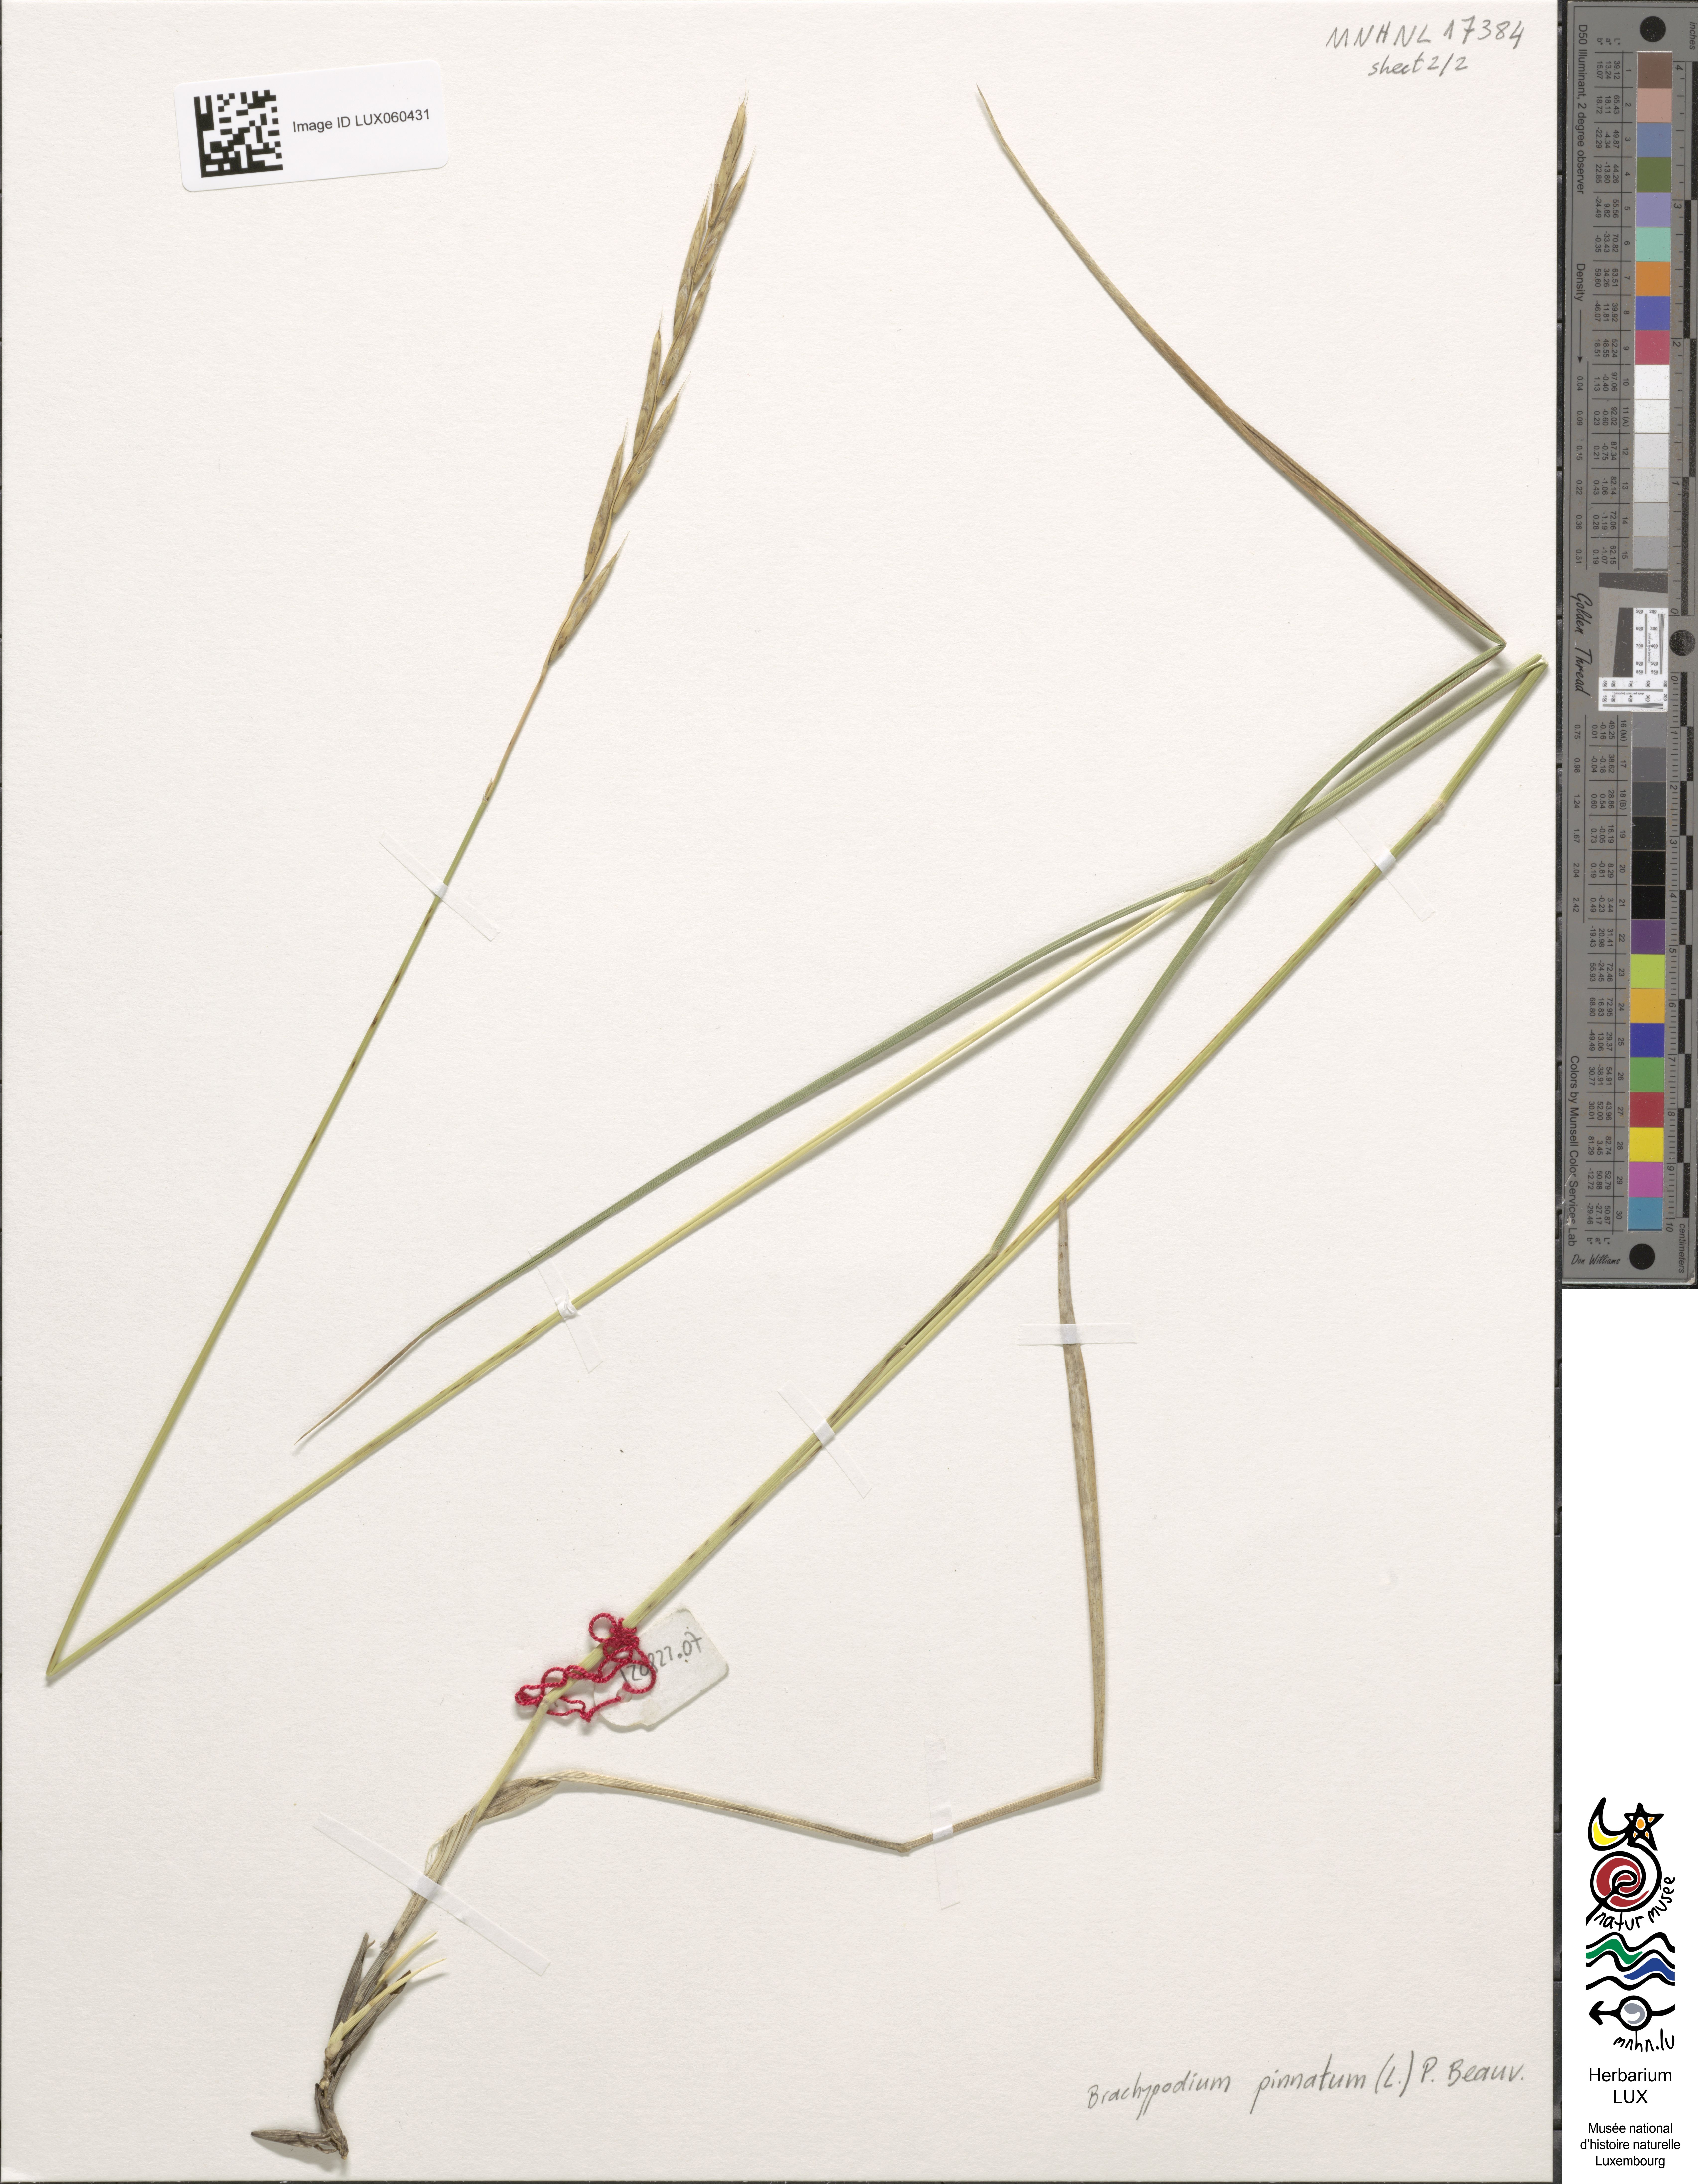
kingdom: Plantae
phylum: Tracheophyta
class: Liliopsida
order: Poales
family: Poaceae
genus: Brachypodium
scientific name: Brachypodium pinnatum
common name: Tor grass
